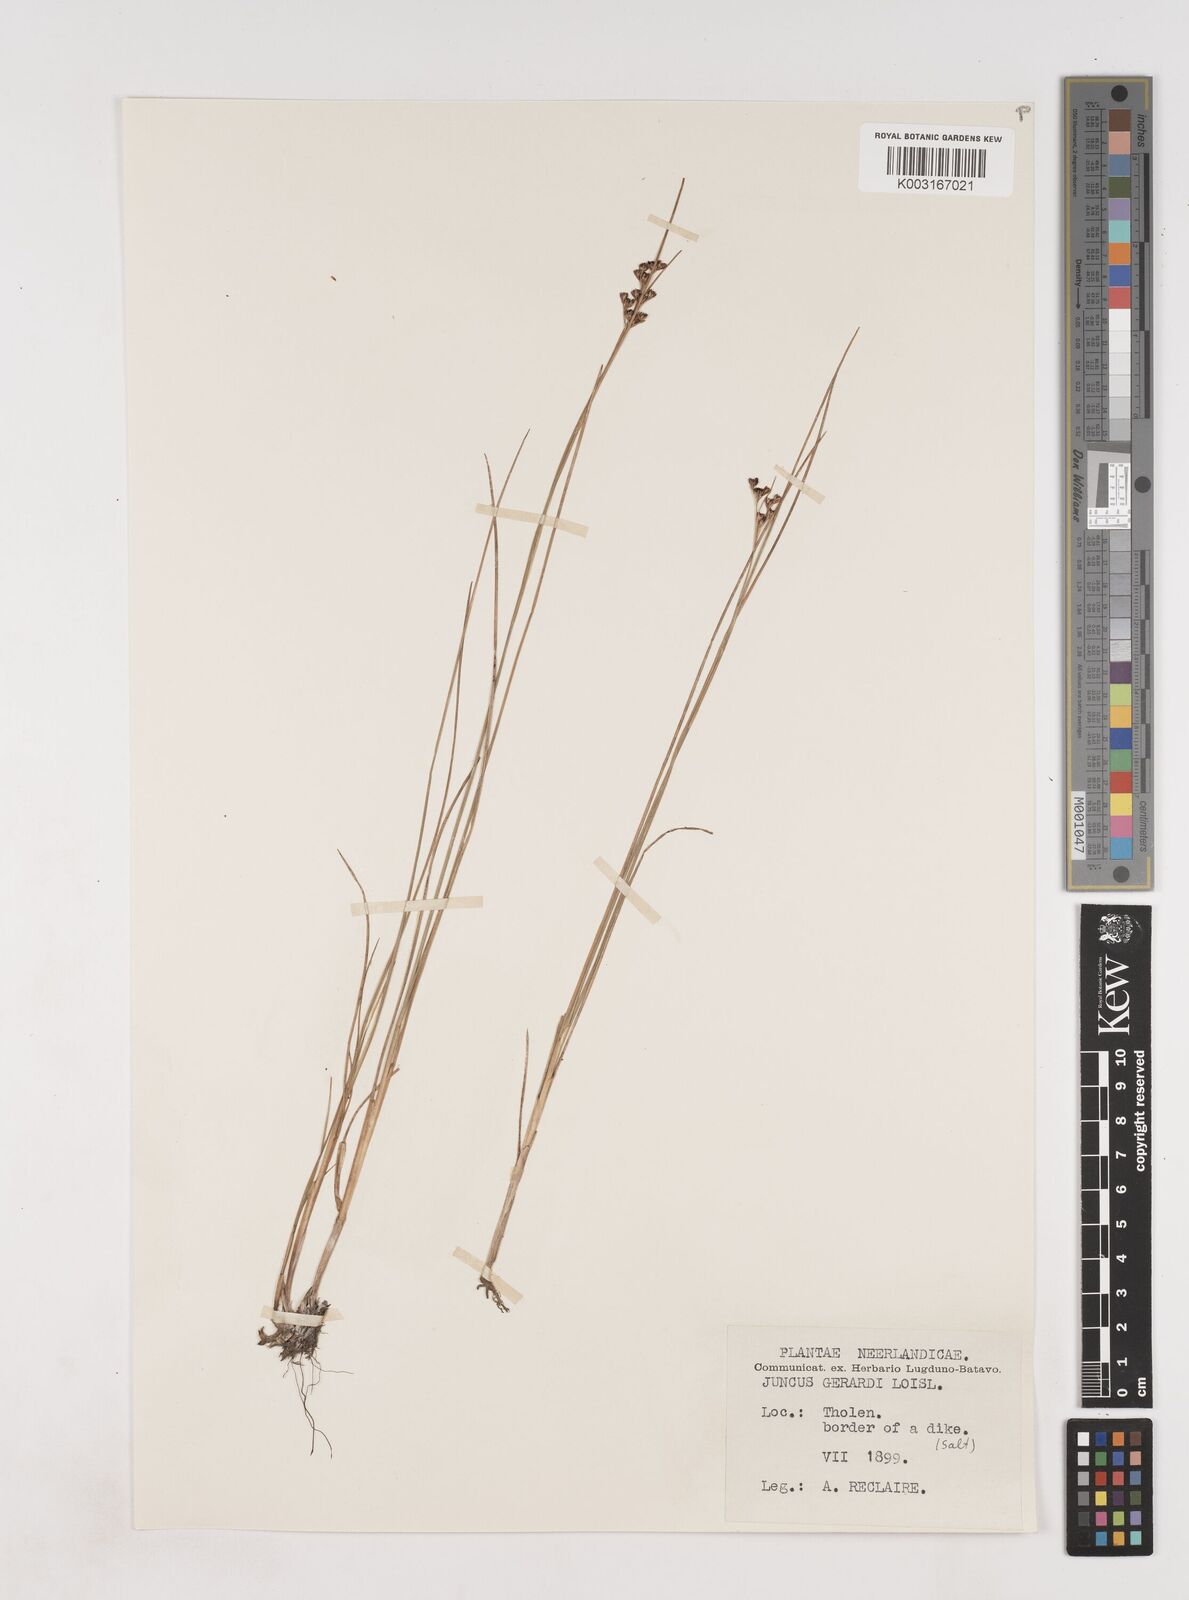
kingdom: Plantae
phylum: Tracheophyta
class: Liliopsida
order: Poales
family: Juncaceae
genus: Juncus
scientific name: Juncus gerardi
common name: Saltmarsh rush
